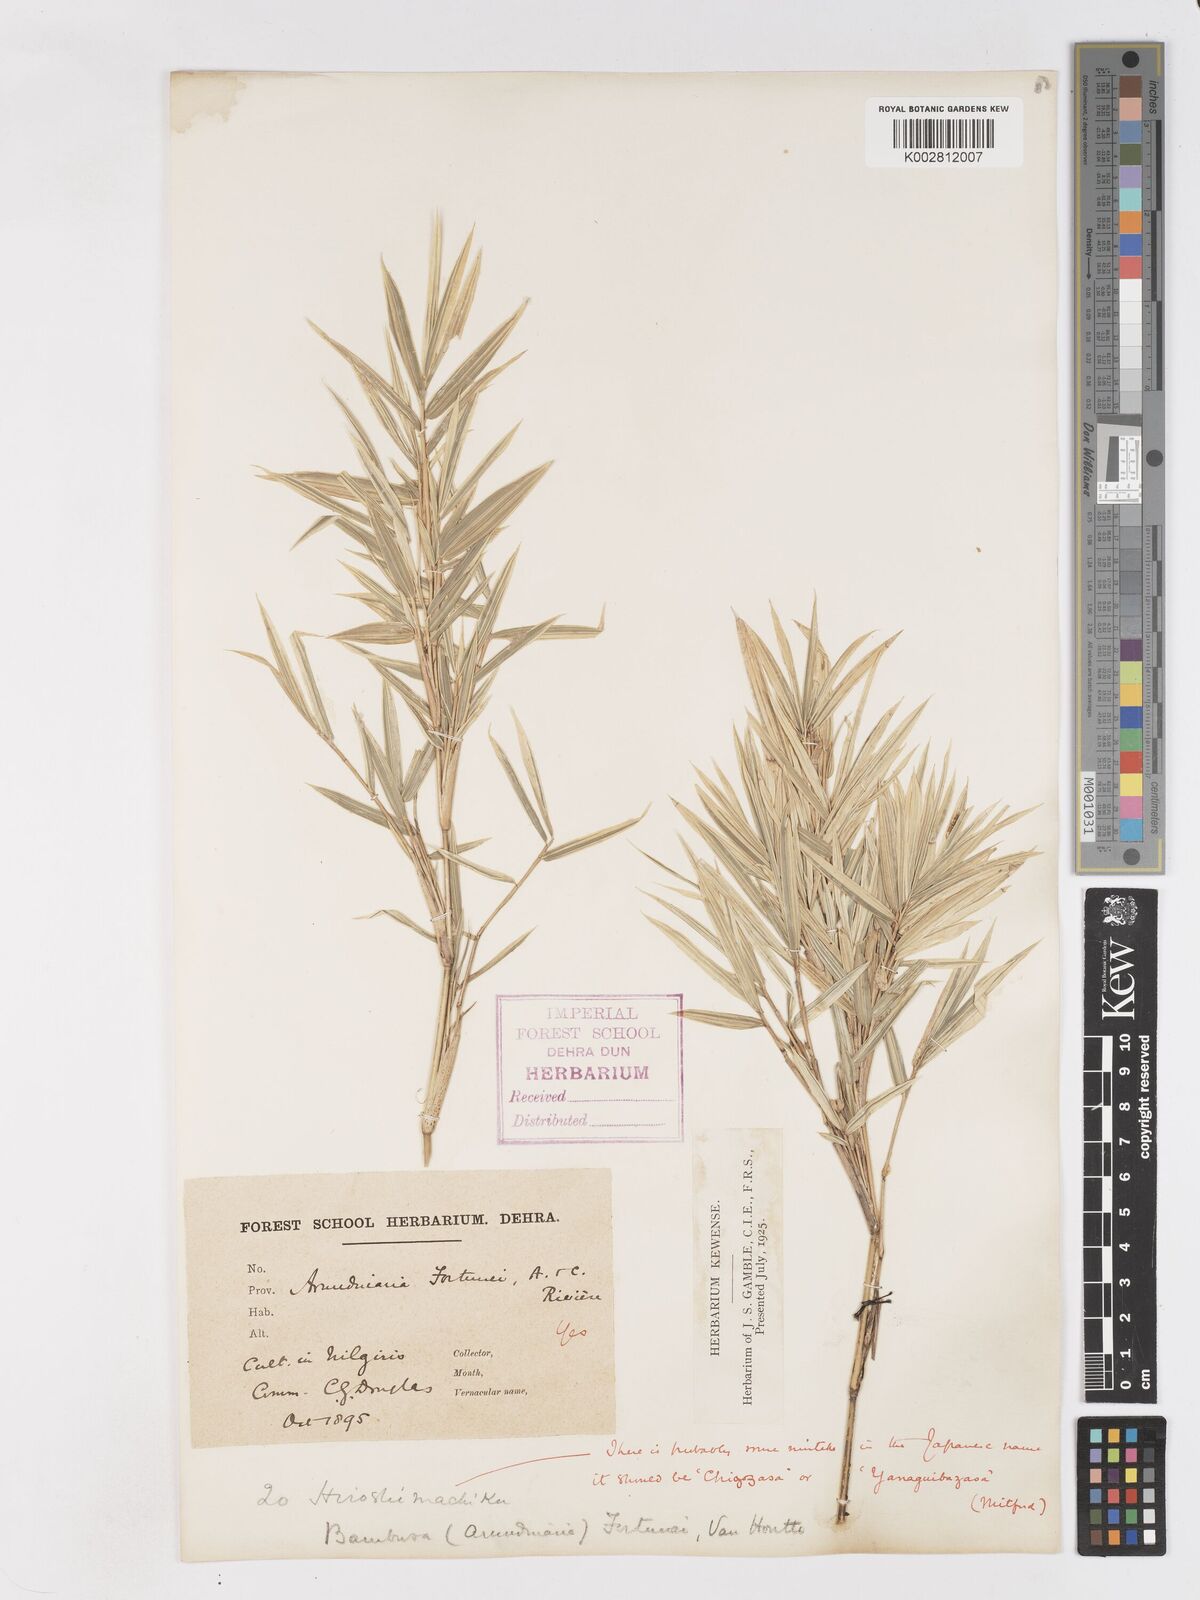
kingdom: Plantae
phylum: Tracheophyta
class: Liliopsida
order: Poales
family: Poaceae
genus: Pleioblastus
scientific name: Pleioblastus variegatus
